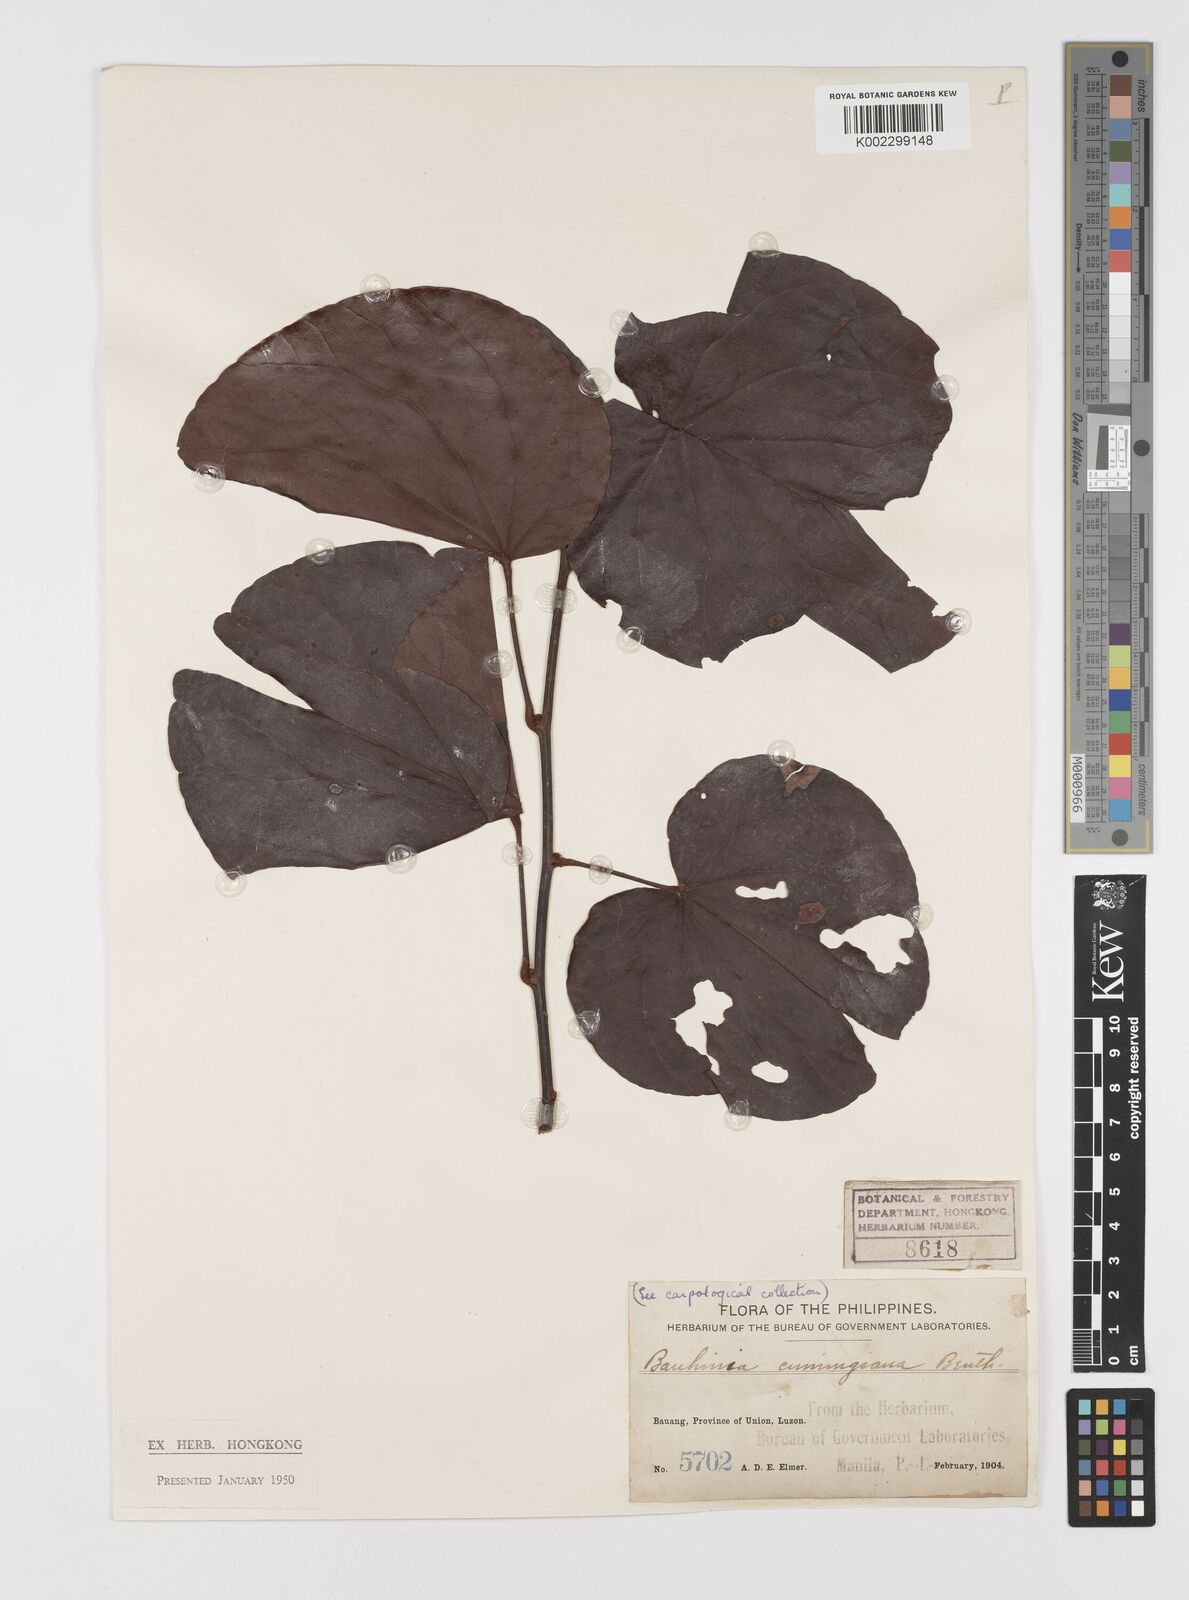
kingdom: Plantae
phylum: Tracheophyta
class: Magnoliopsida
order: Fabales
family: Fabaceae
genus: Phanera
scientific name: Phanera integrifolia
